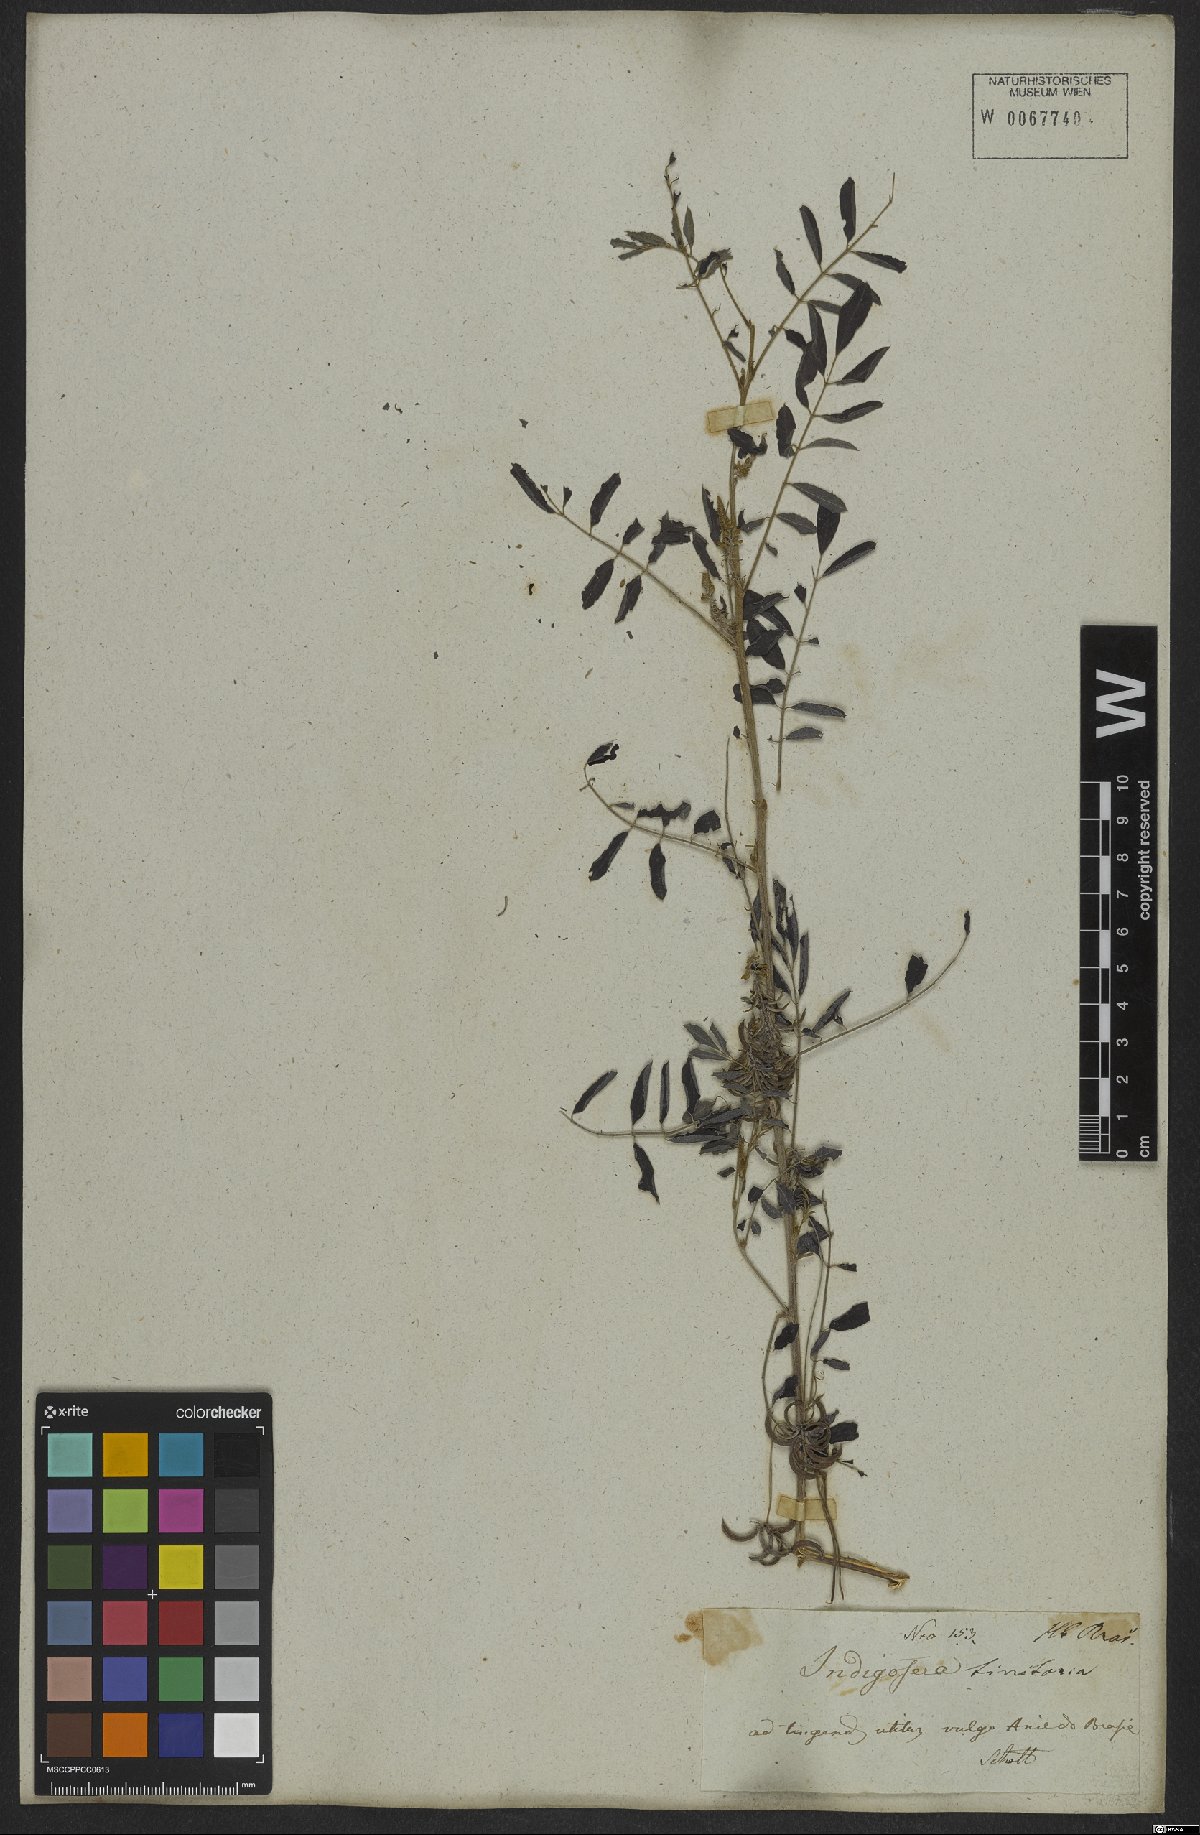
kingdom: Plantae
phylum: Tracheophyta
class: Magnoliopsida
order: Fabales
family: Fabaceae
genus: Indigofera
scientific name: Indigofera tinctoria
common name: True indigo
